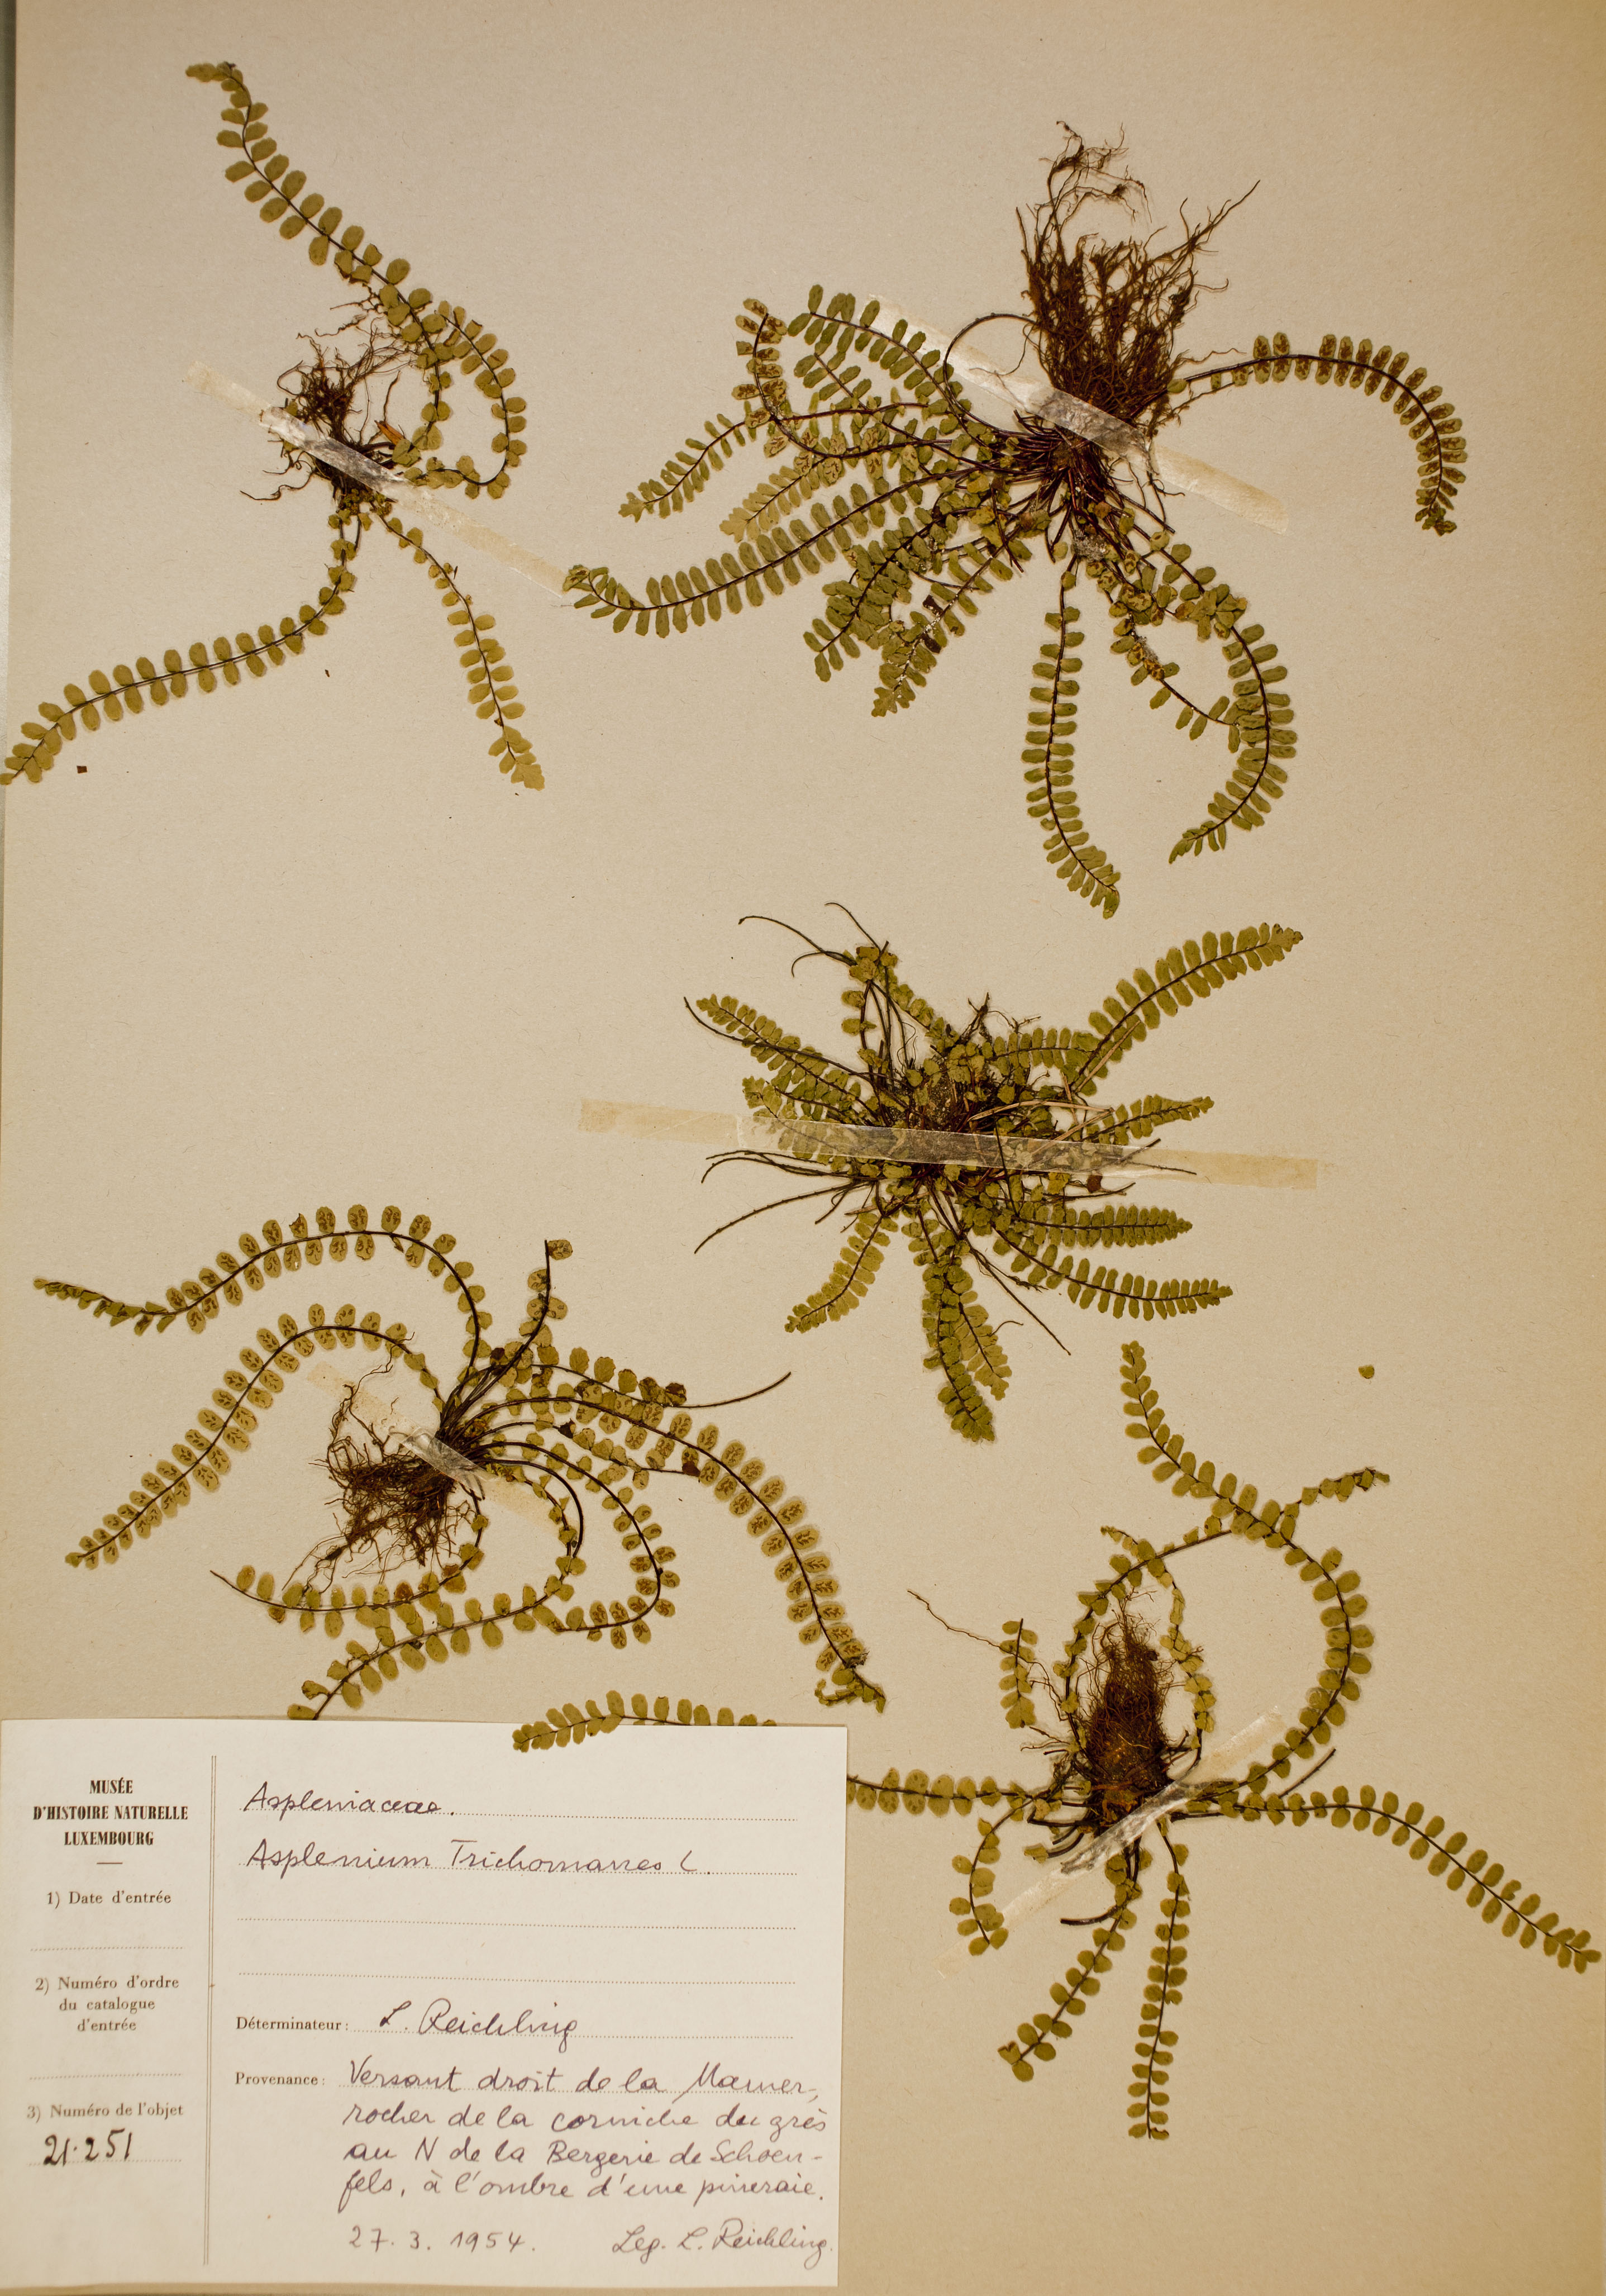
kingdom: Plantae
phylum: Tracheophyta
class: Polypodiopsida
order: Polypodiales
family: Aspleniaceae
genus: Asplenium
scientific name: Asplenium trichomanes
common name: Maidenhair spleenwort
